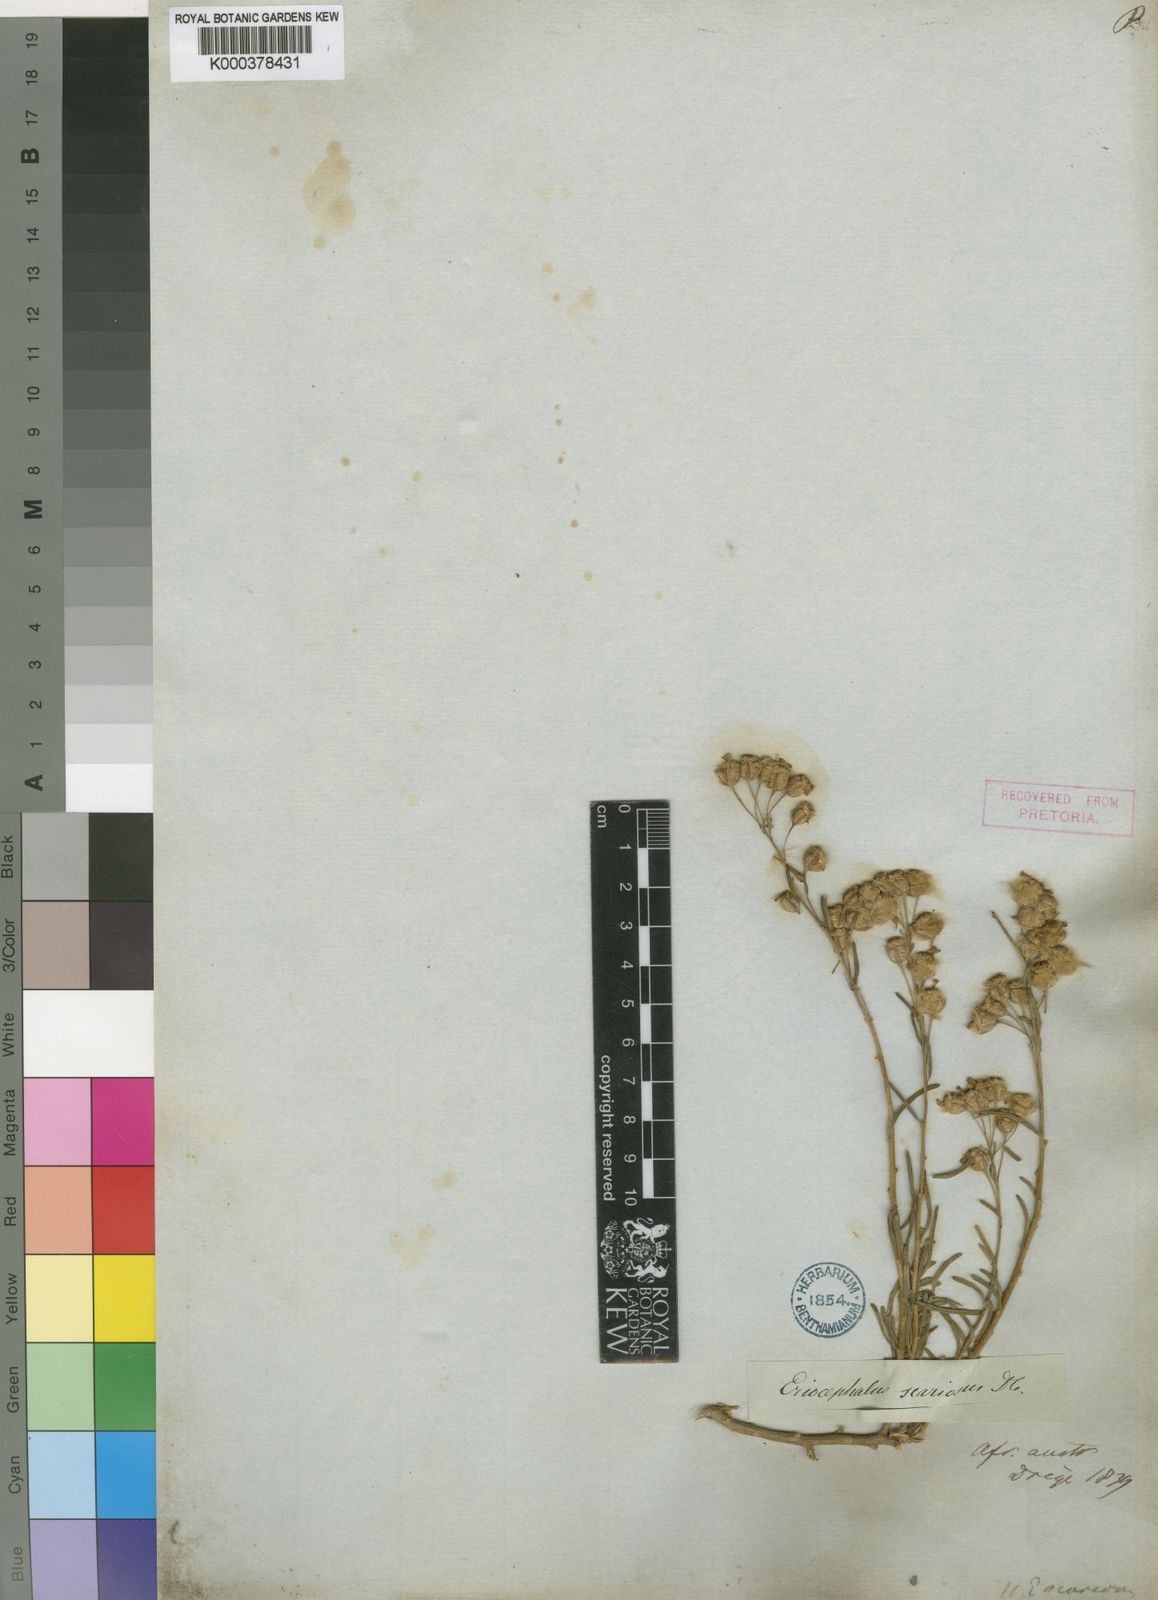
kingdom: Plantae
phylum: Tracheophyta
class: Magnoliopsida
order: Asterales
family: Asteraceae
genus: Eriocephalus
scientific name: Eriocephalus scariosus
